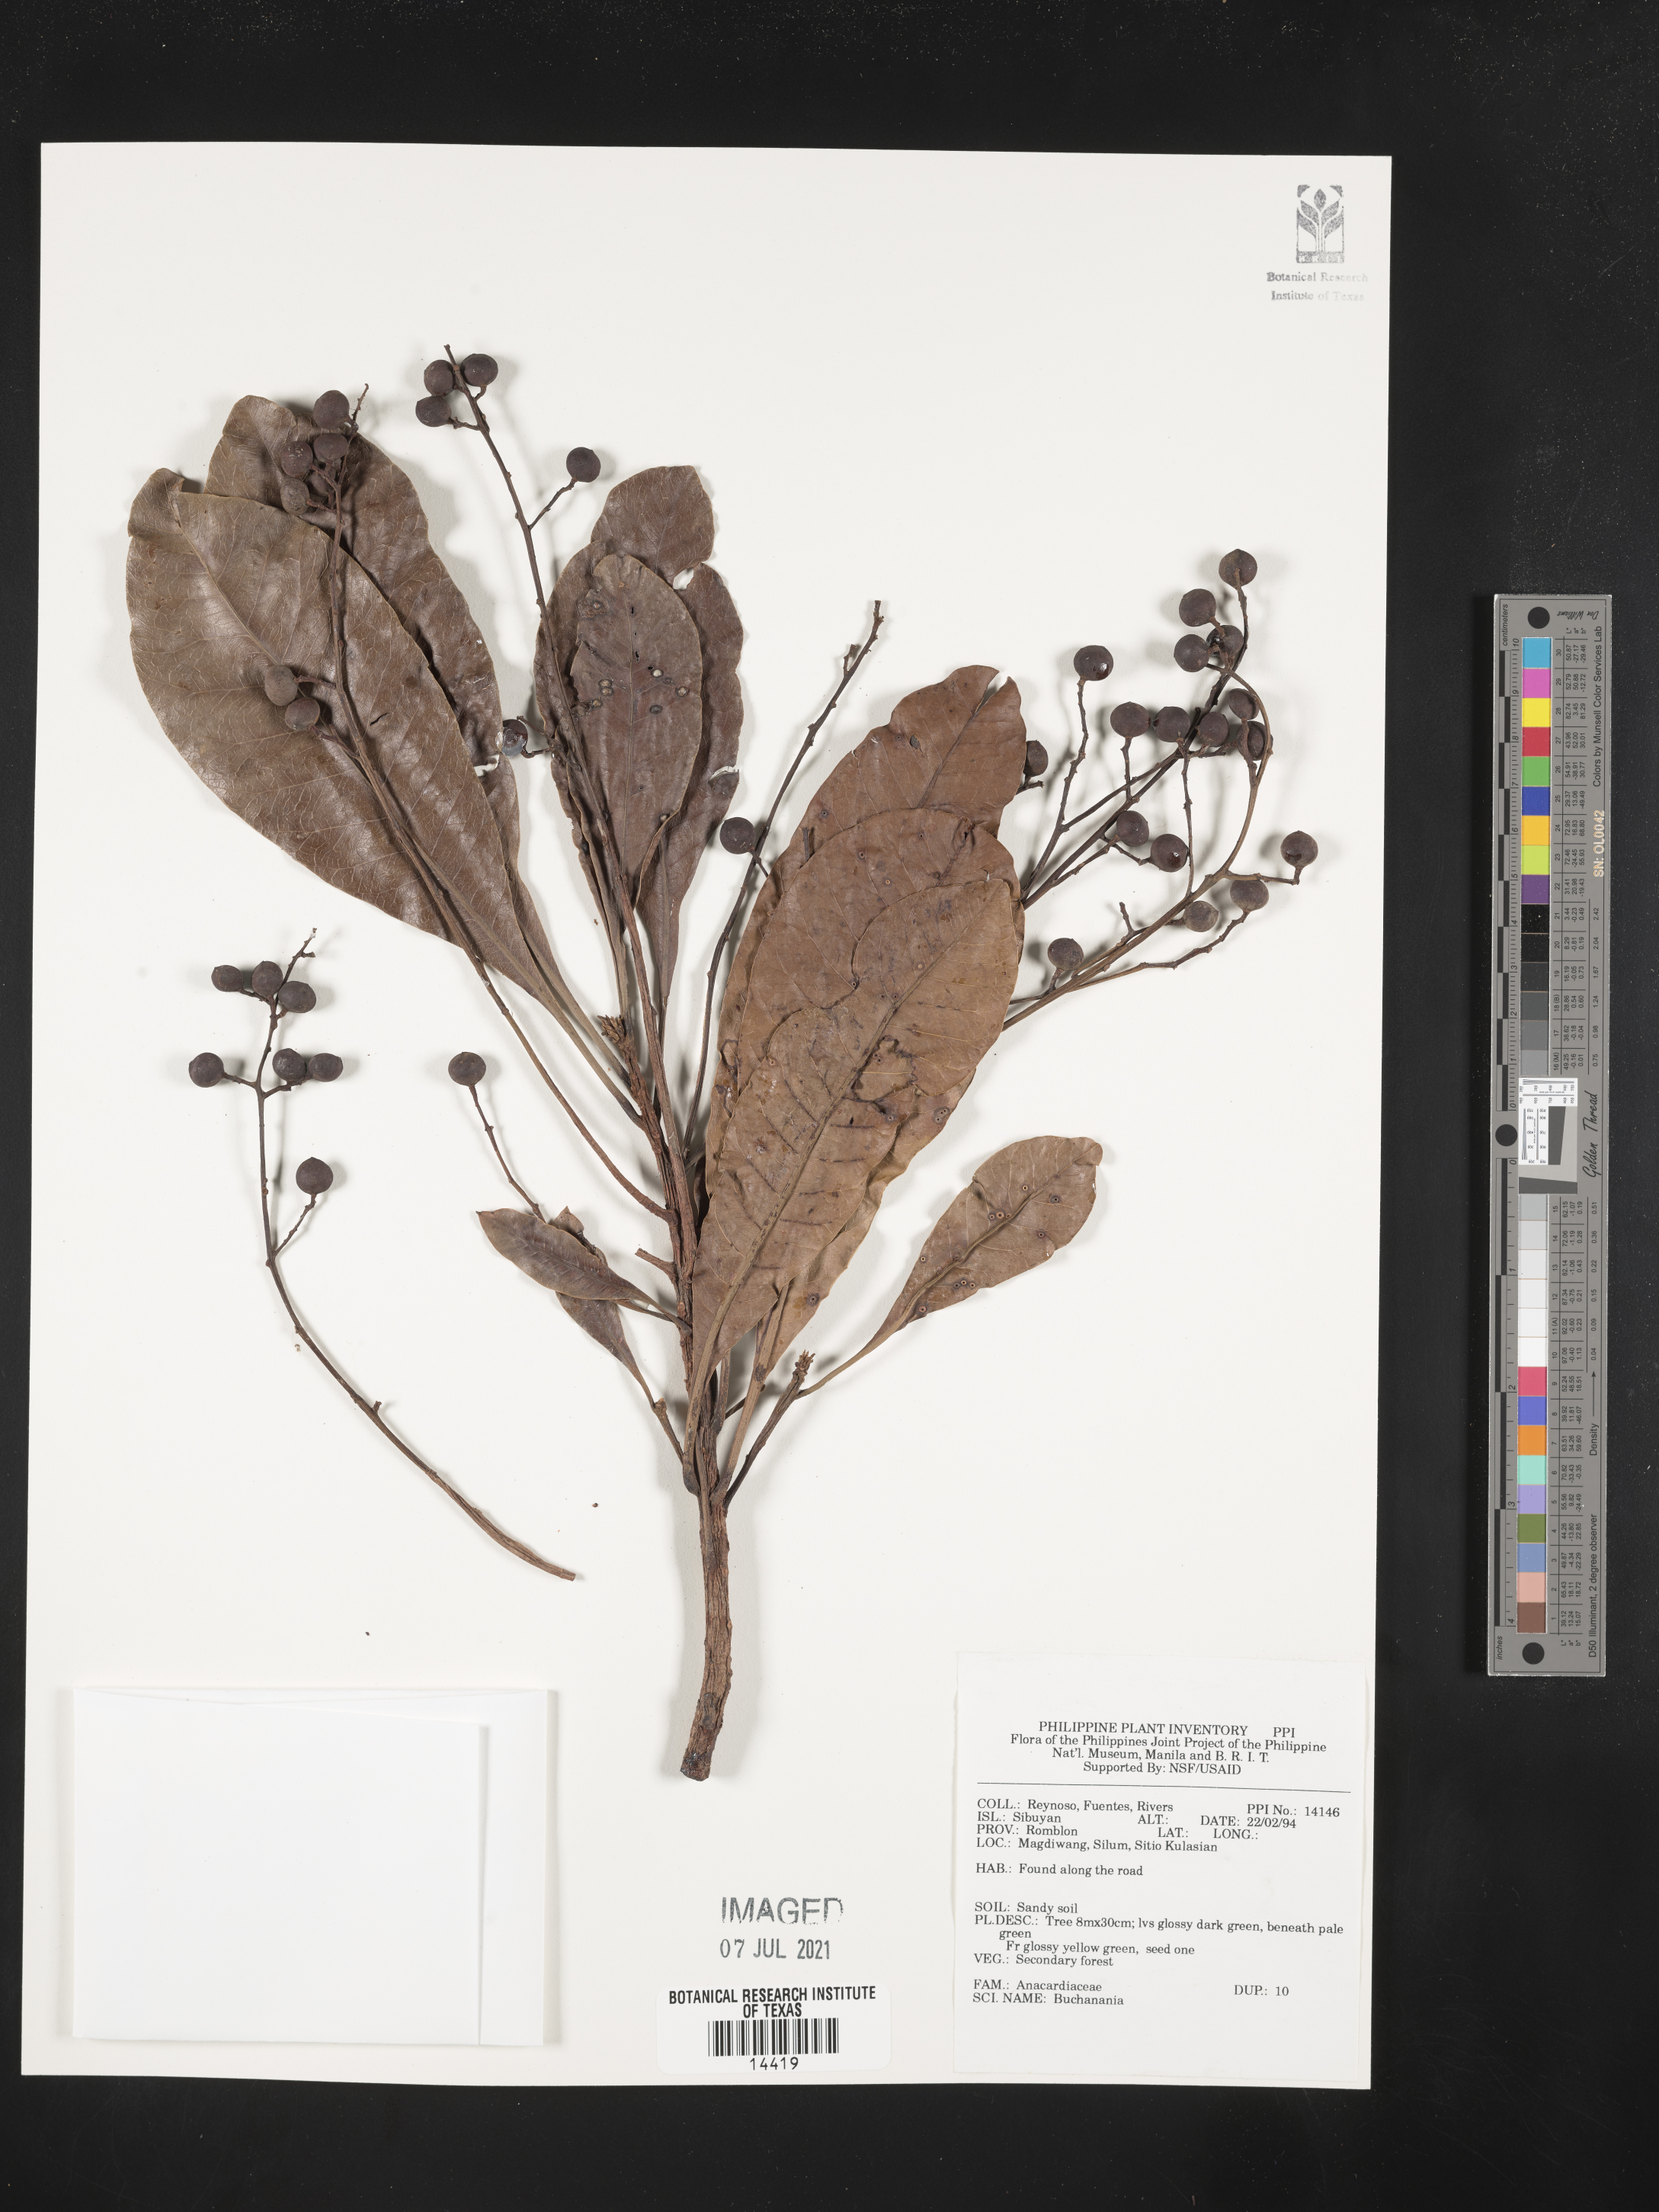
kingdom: Plantae
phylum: Tracheophyta
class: Magnoliopsida
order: Sapindales
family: Anacardiaceae
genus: Buchanania
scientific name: Buchanania
